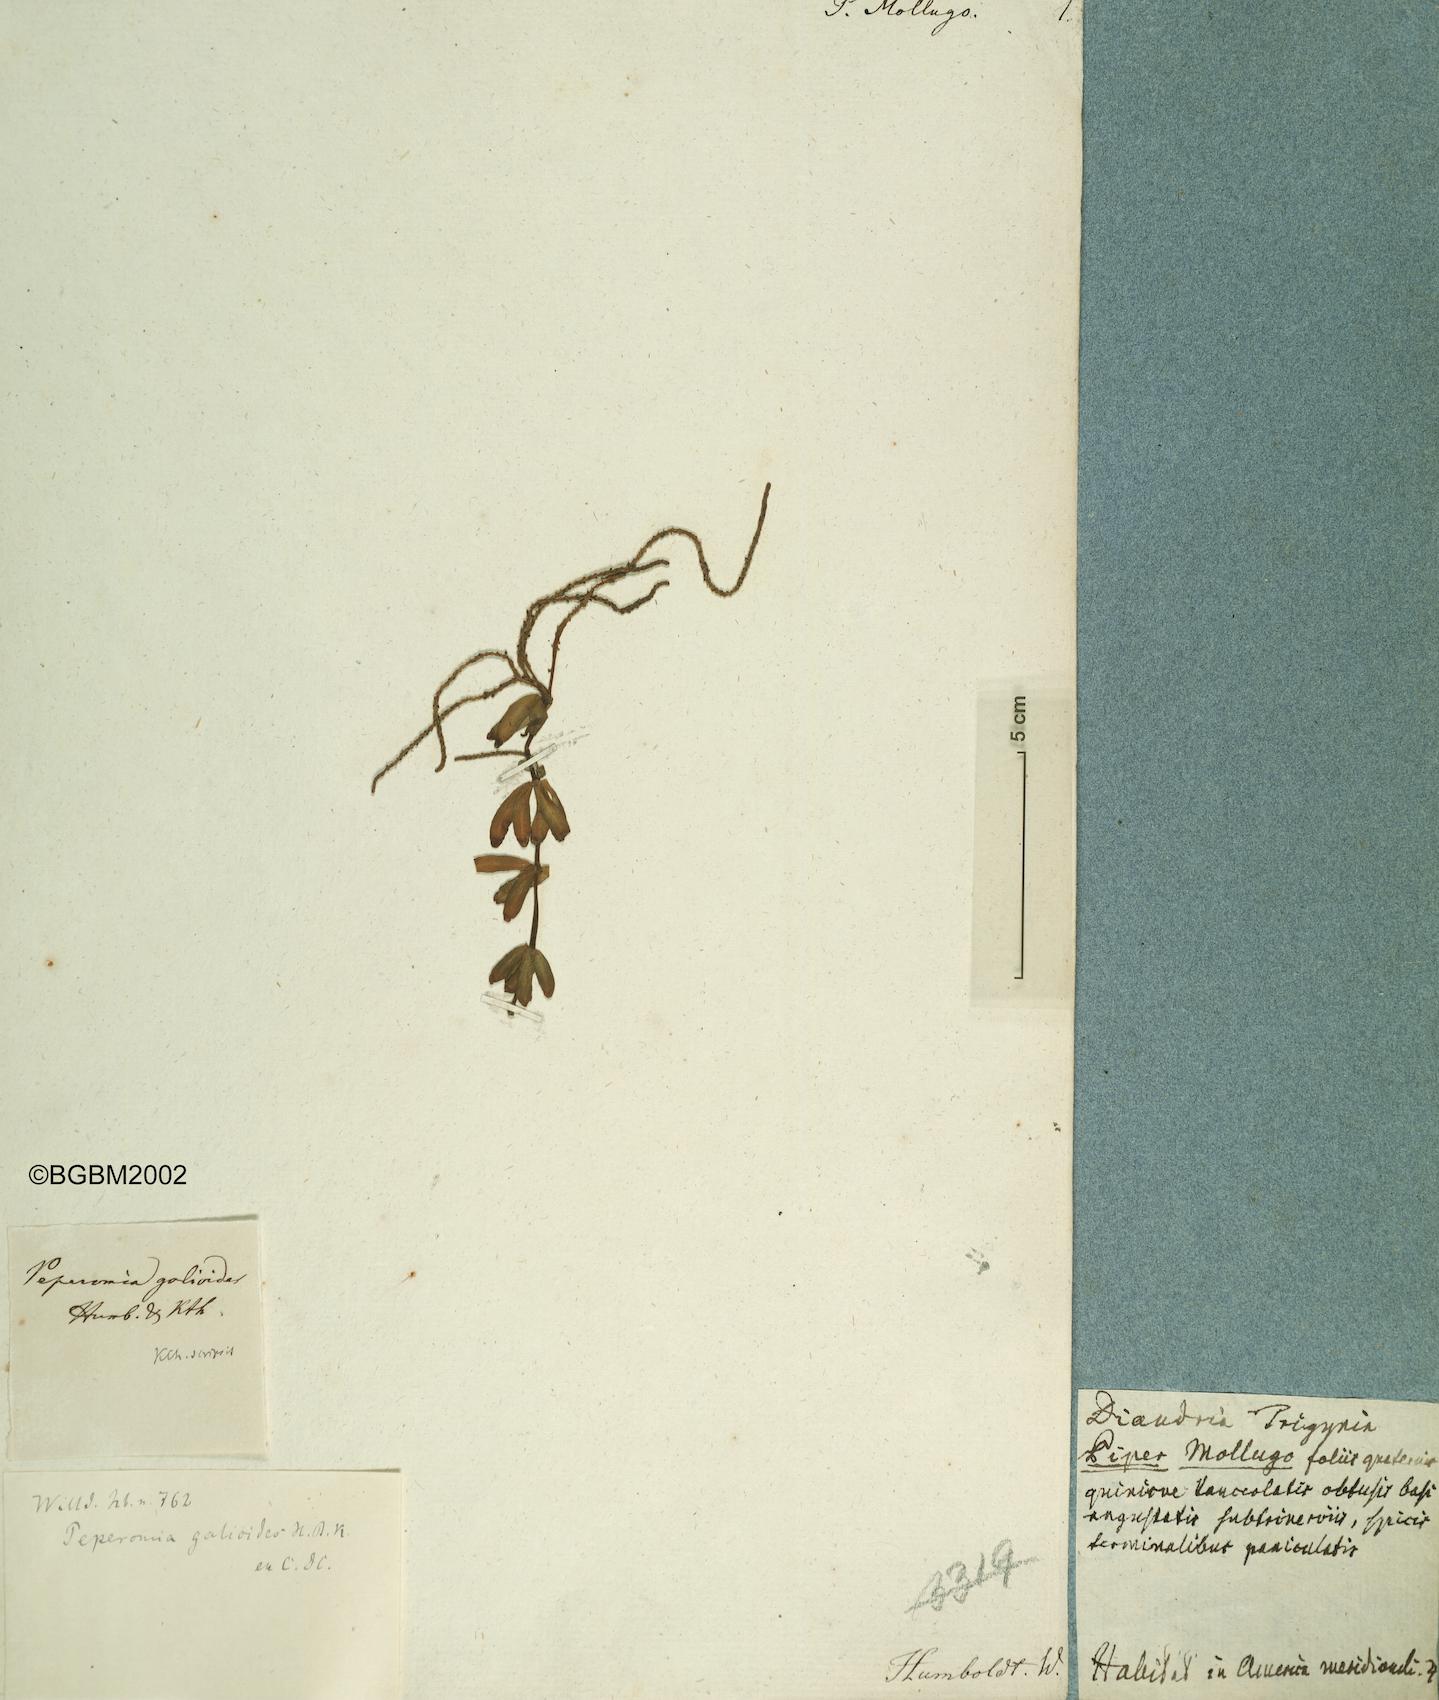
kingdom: Plantae
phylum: Tracheophyta
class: Magnoliopsida
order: Piperales
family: Piperaceae
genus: Piper
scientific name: Piper
